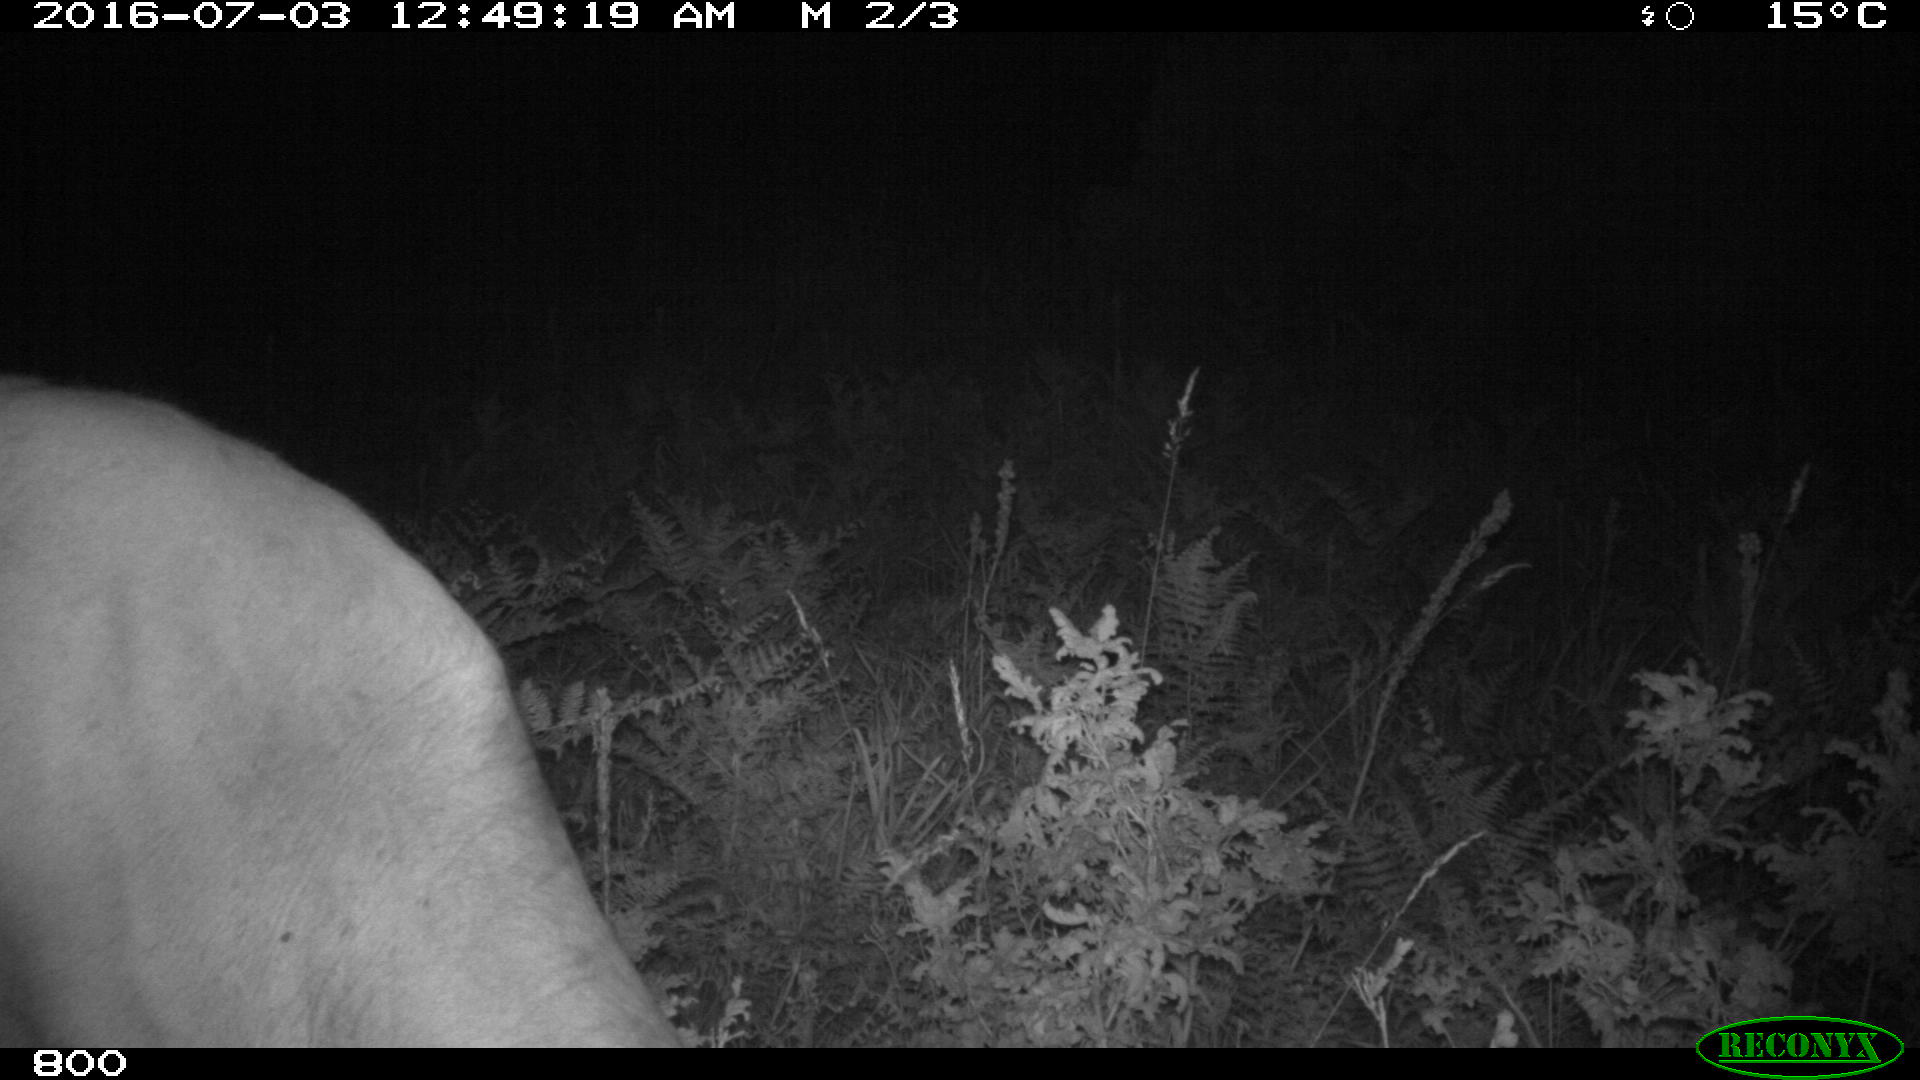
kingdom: Animalia
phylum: Chordata
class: Mammalia
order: Artiodactyla
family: Bovidae
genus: Bos
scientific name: Bos taurus
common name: Domesticated cattle
